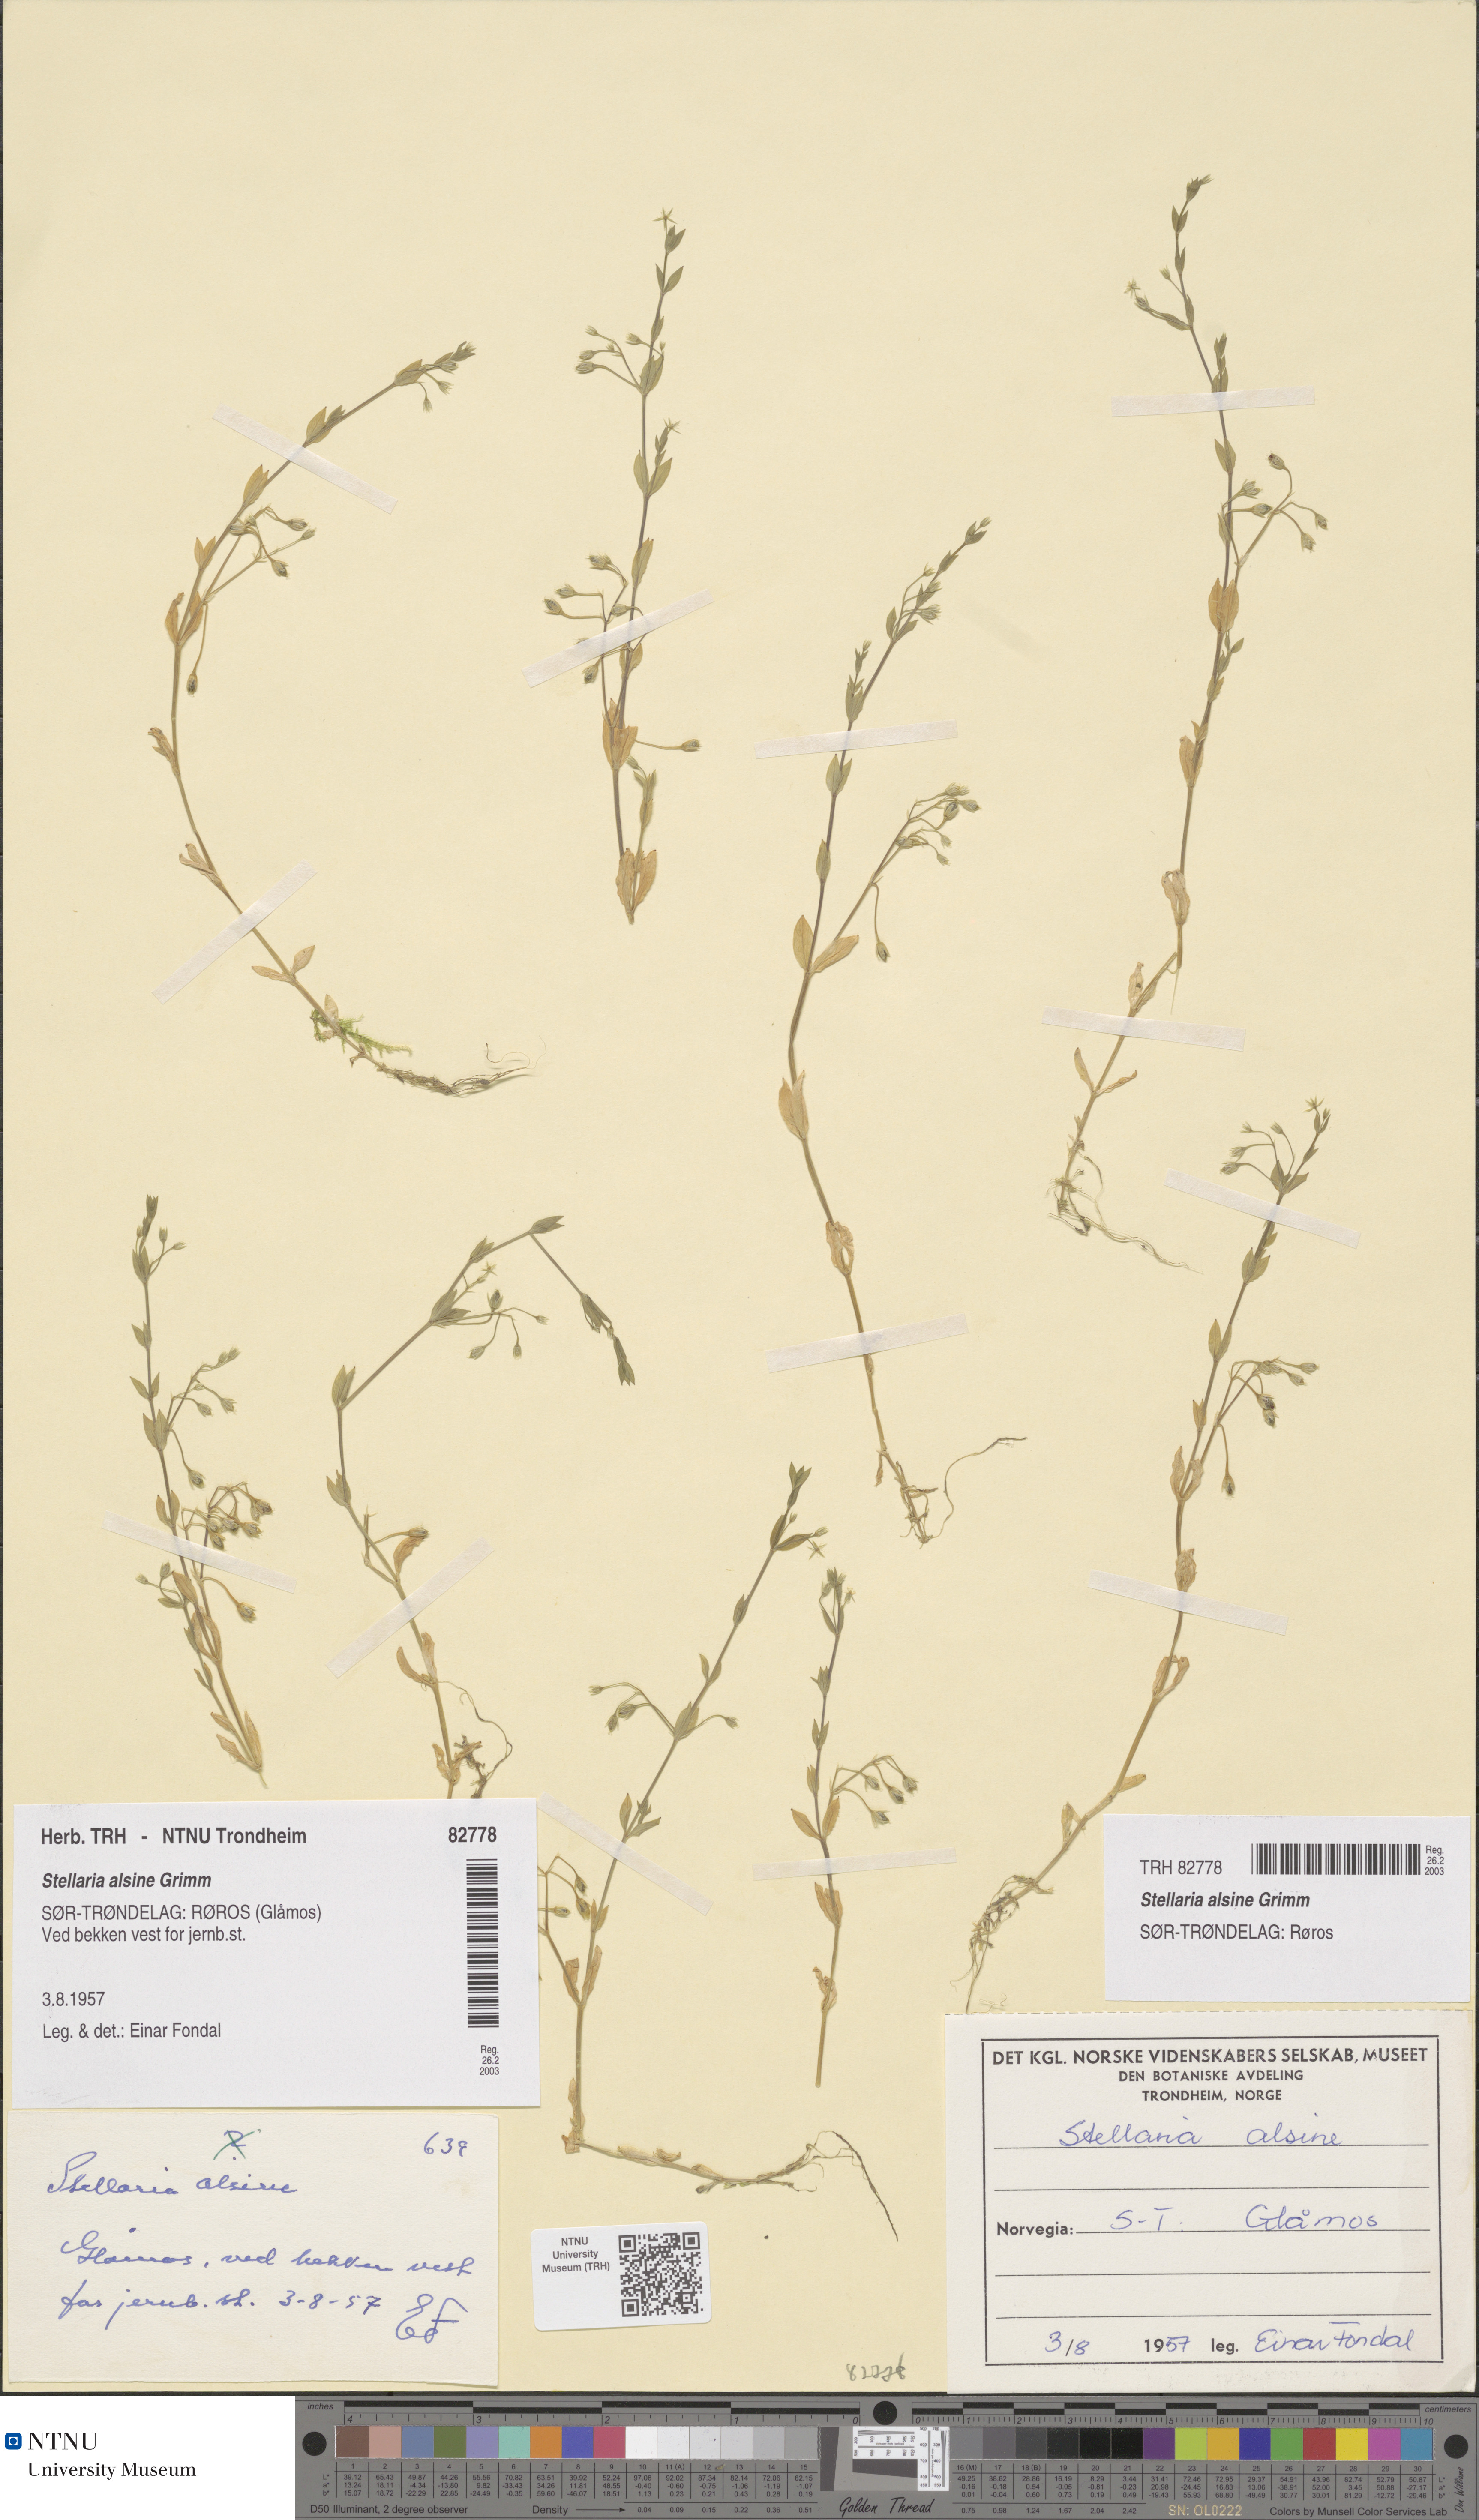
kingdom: Plantae
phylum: Tracheophyta
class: Magnoliopsida
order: Caryophyllales
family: Caryophyllaceae
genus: Stellaria
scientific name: Stellaria alsine
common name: Bog stitchwort
